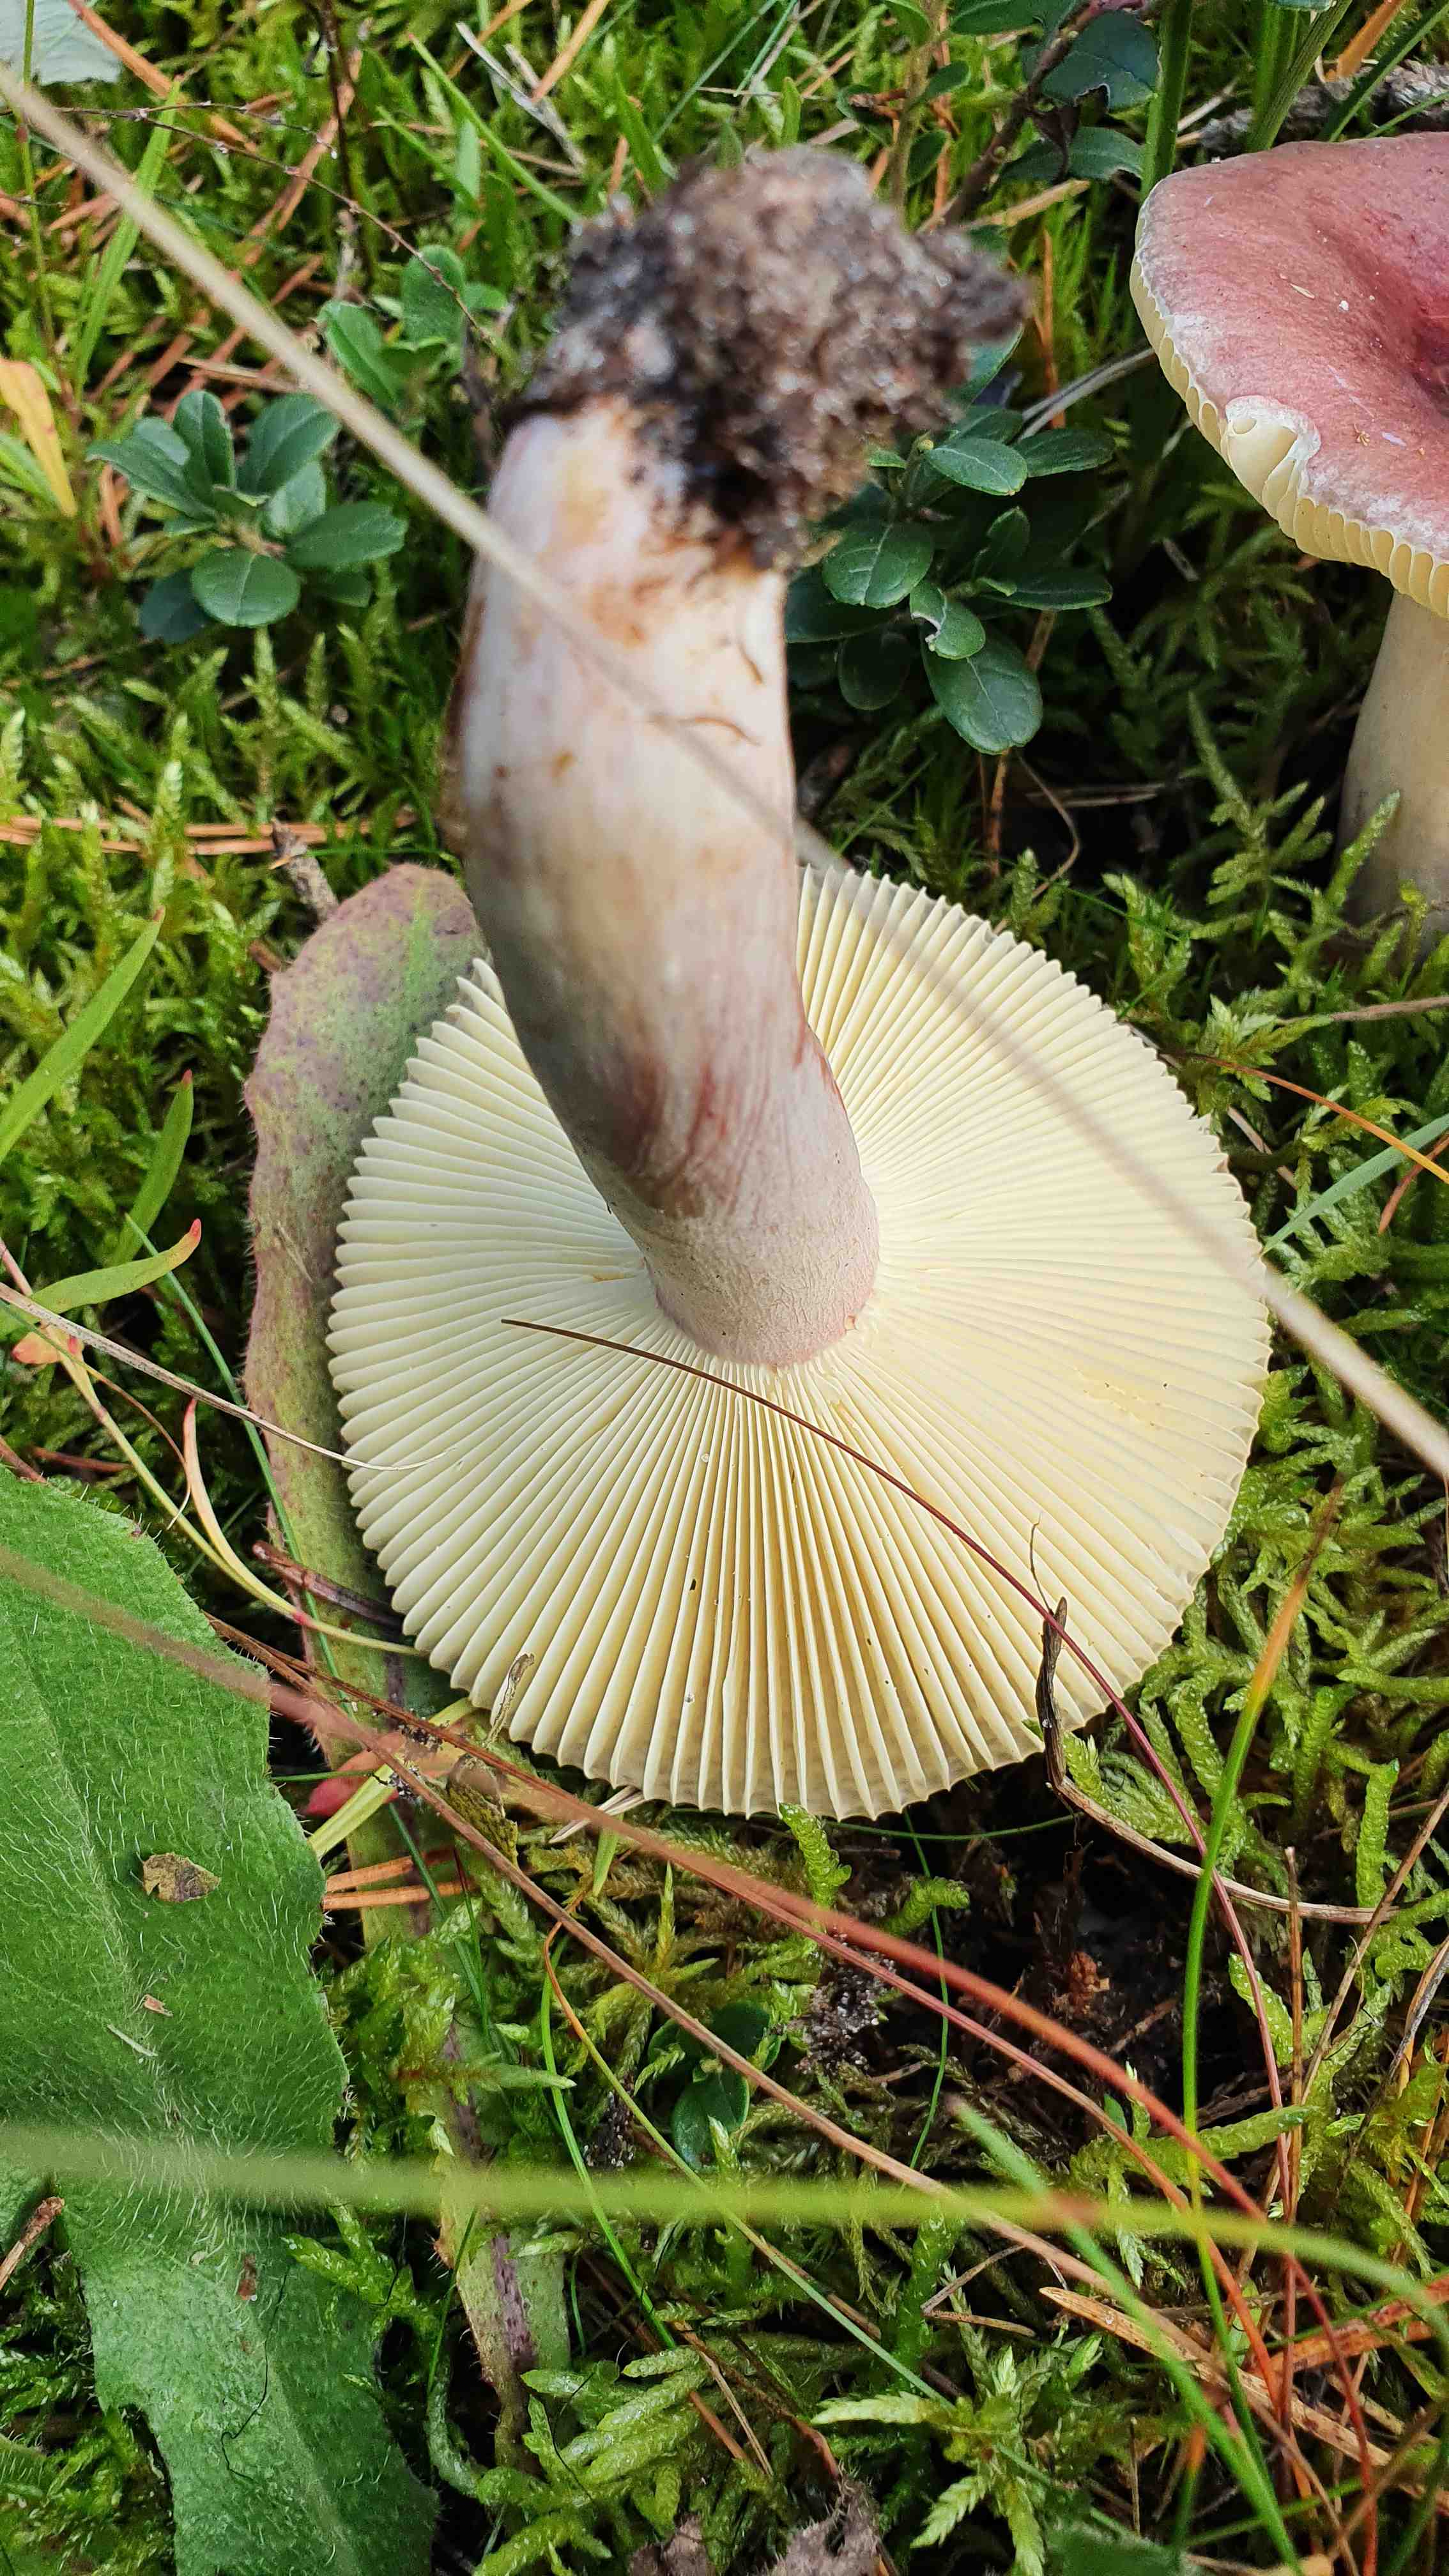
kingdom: Fungi
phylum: Basidiomycota
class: Agaricomycetes
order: Russulales
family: Russulaceae
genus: Russula
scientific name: Russula sardonia
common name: citronbladet skørhat
